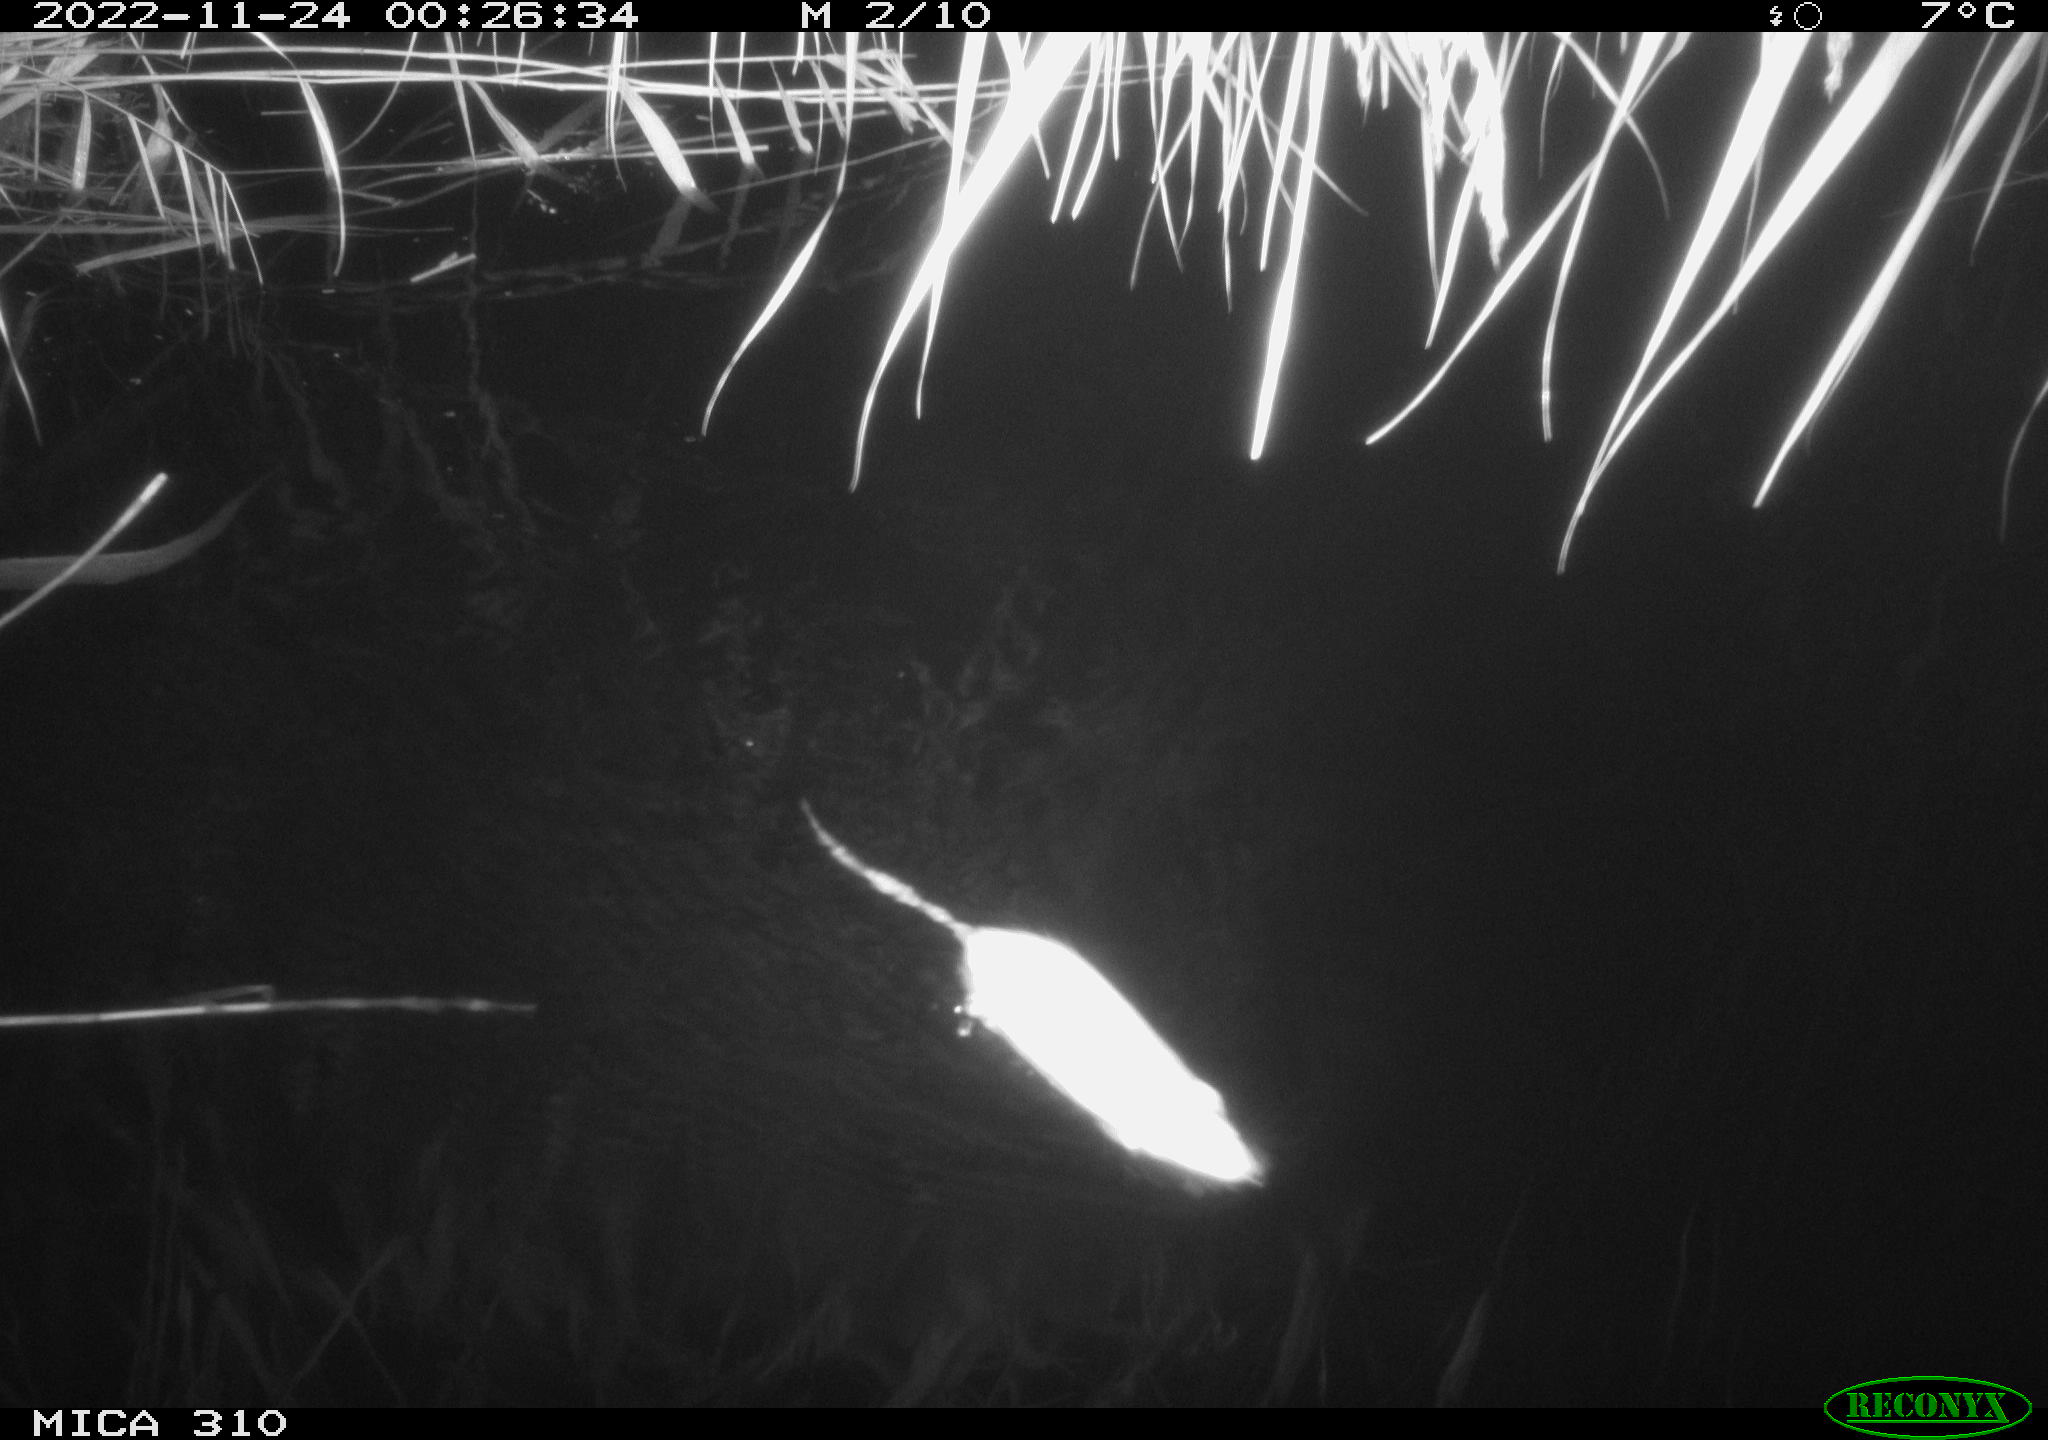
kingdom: Animalia
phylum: Chordata
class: Mammalia
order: Rodentia
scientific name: Rodentia
